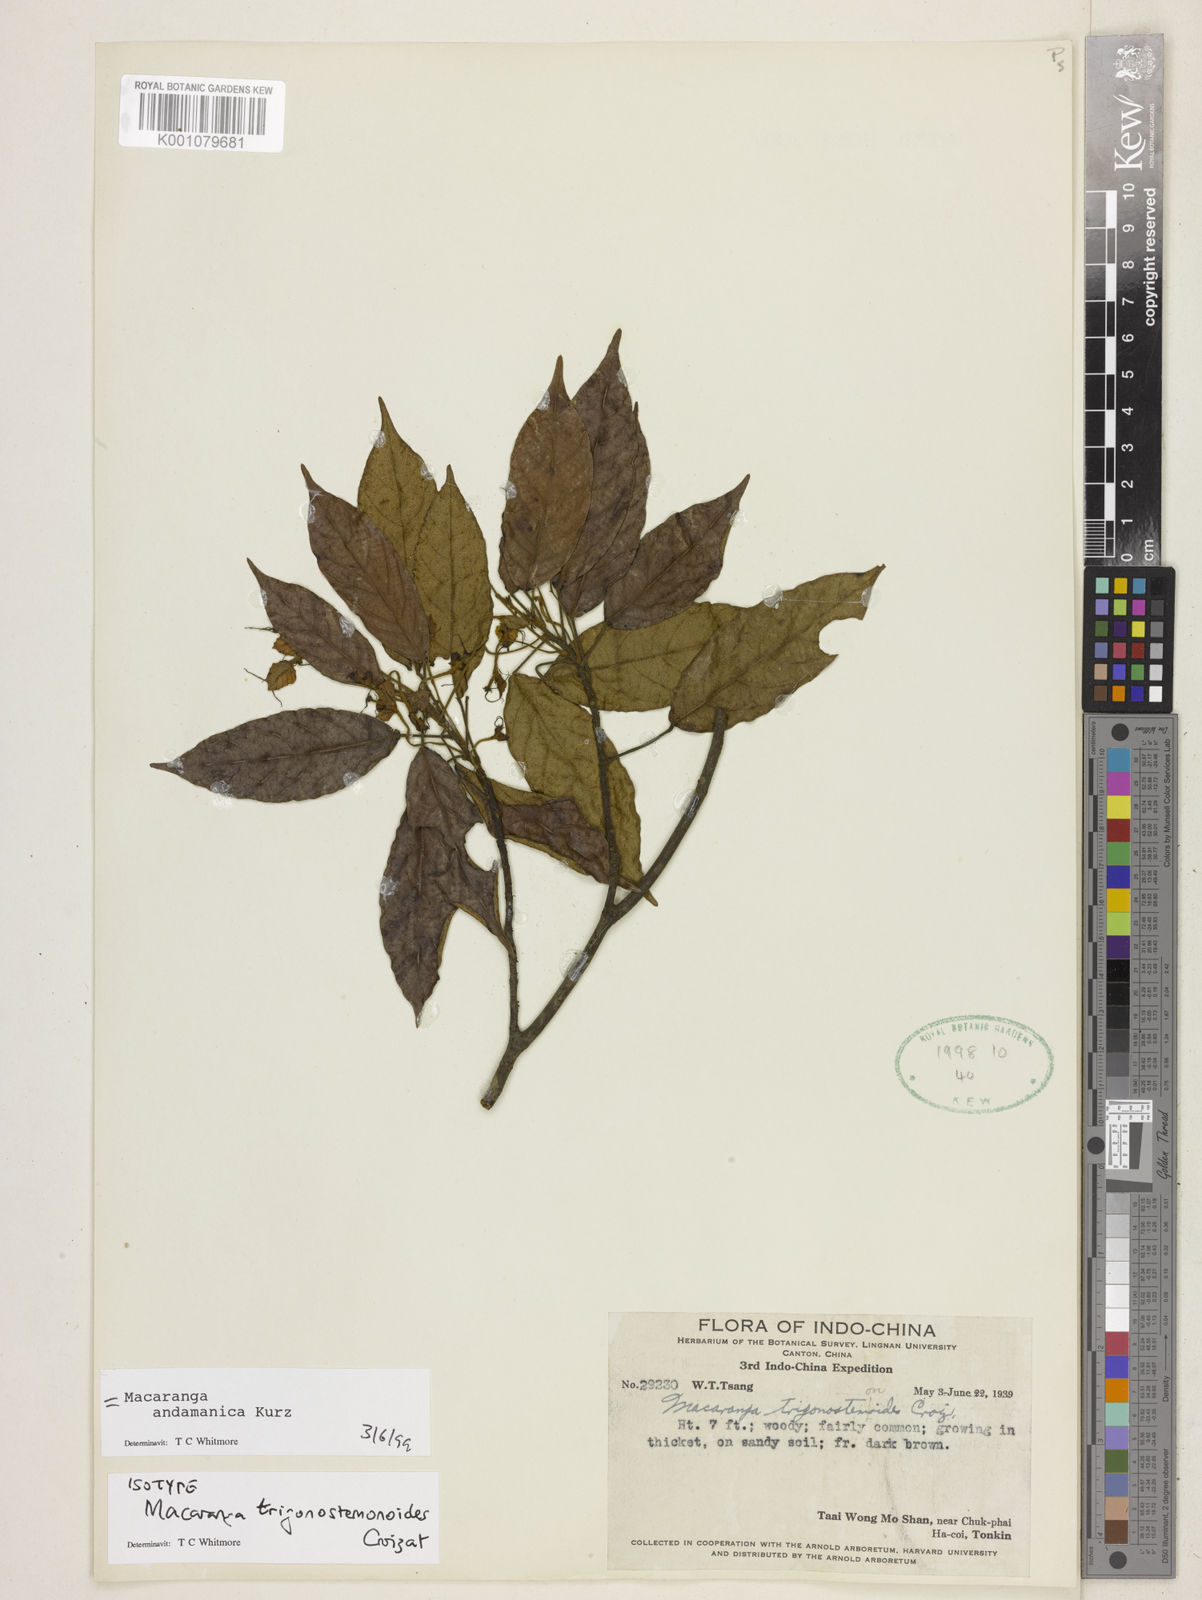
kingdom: Plantae
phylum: Tracheophyta
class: Magnoliopsida
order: Malpighiales
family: Euphorbiaceae
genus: Macaranga
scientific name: Macaranga andamanica
